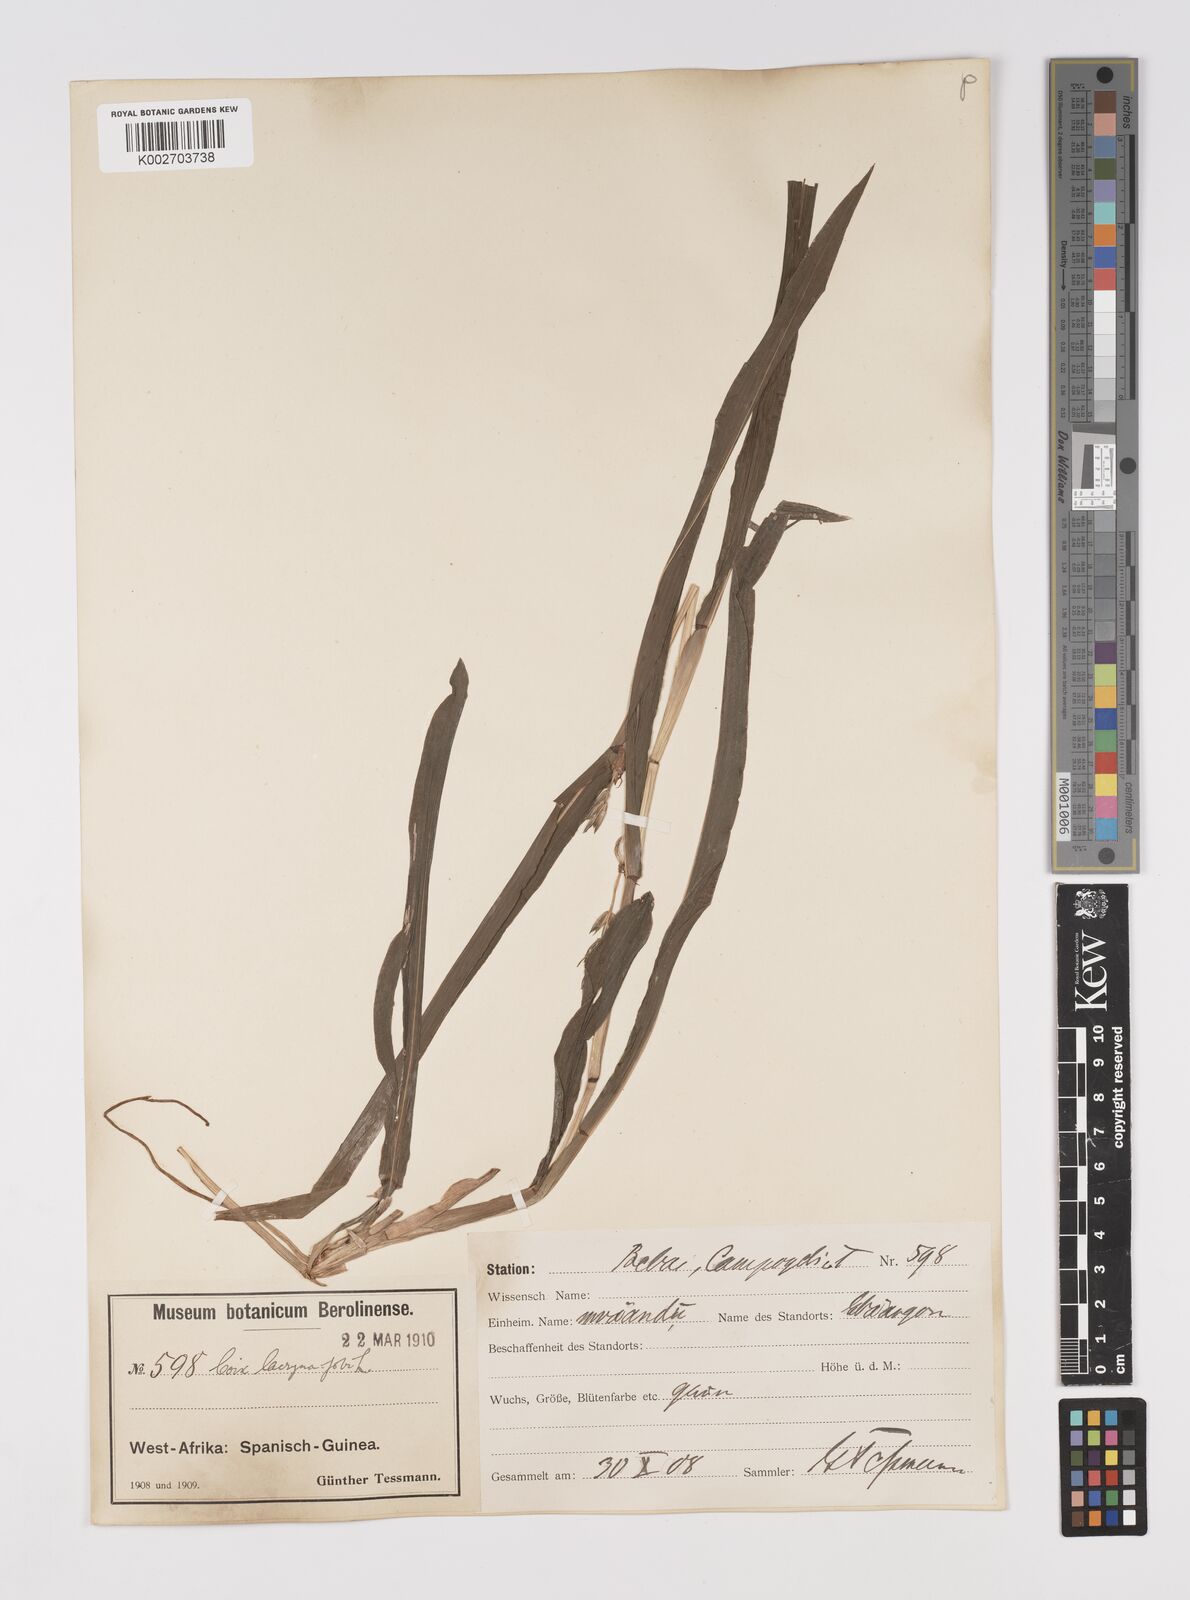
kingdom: Plantae
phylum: Tracheophyta
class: Liliopsida
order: Poales
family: Poaceae
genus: Coix
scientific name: Coix lacryma-jobi
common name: Job's tears
